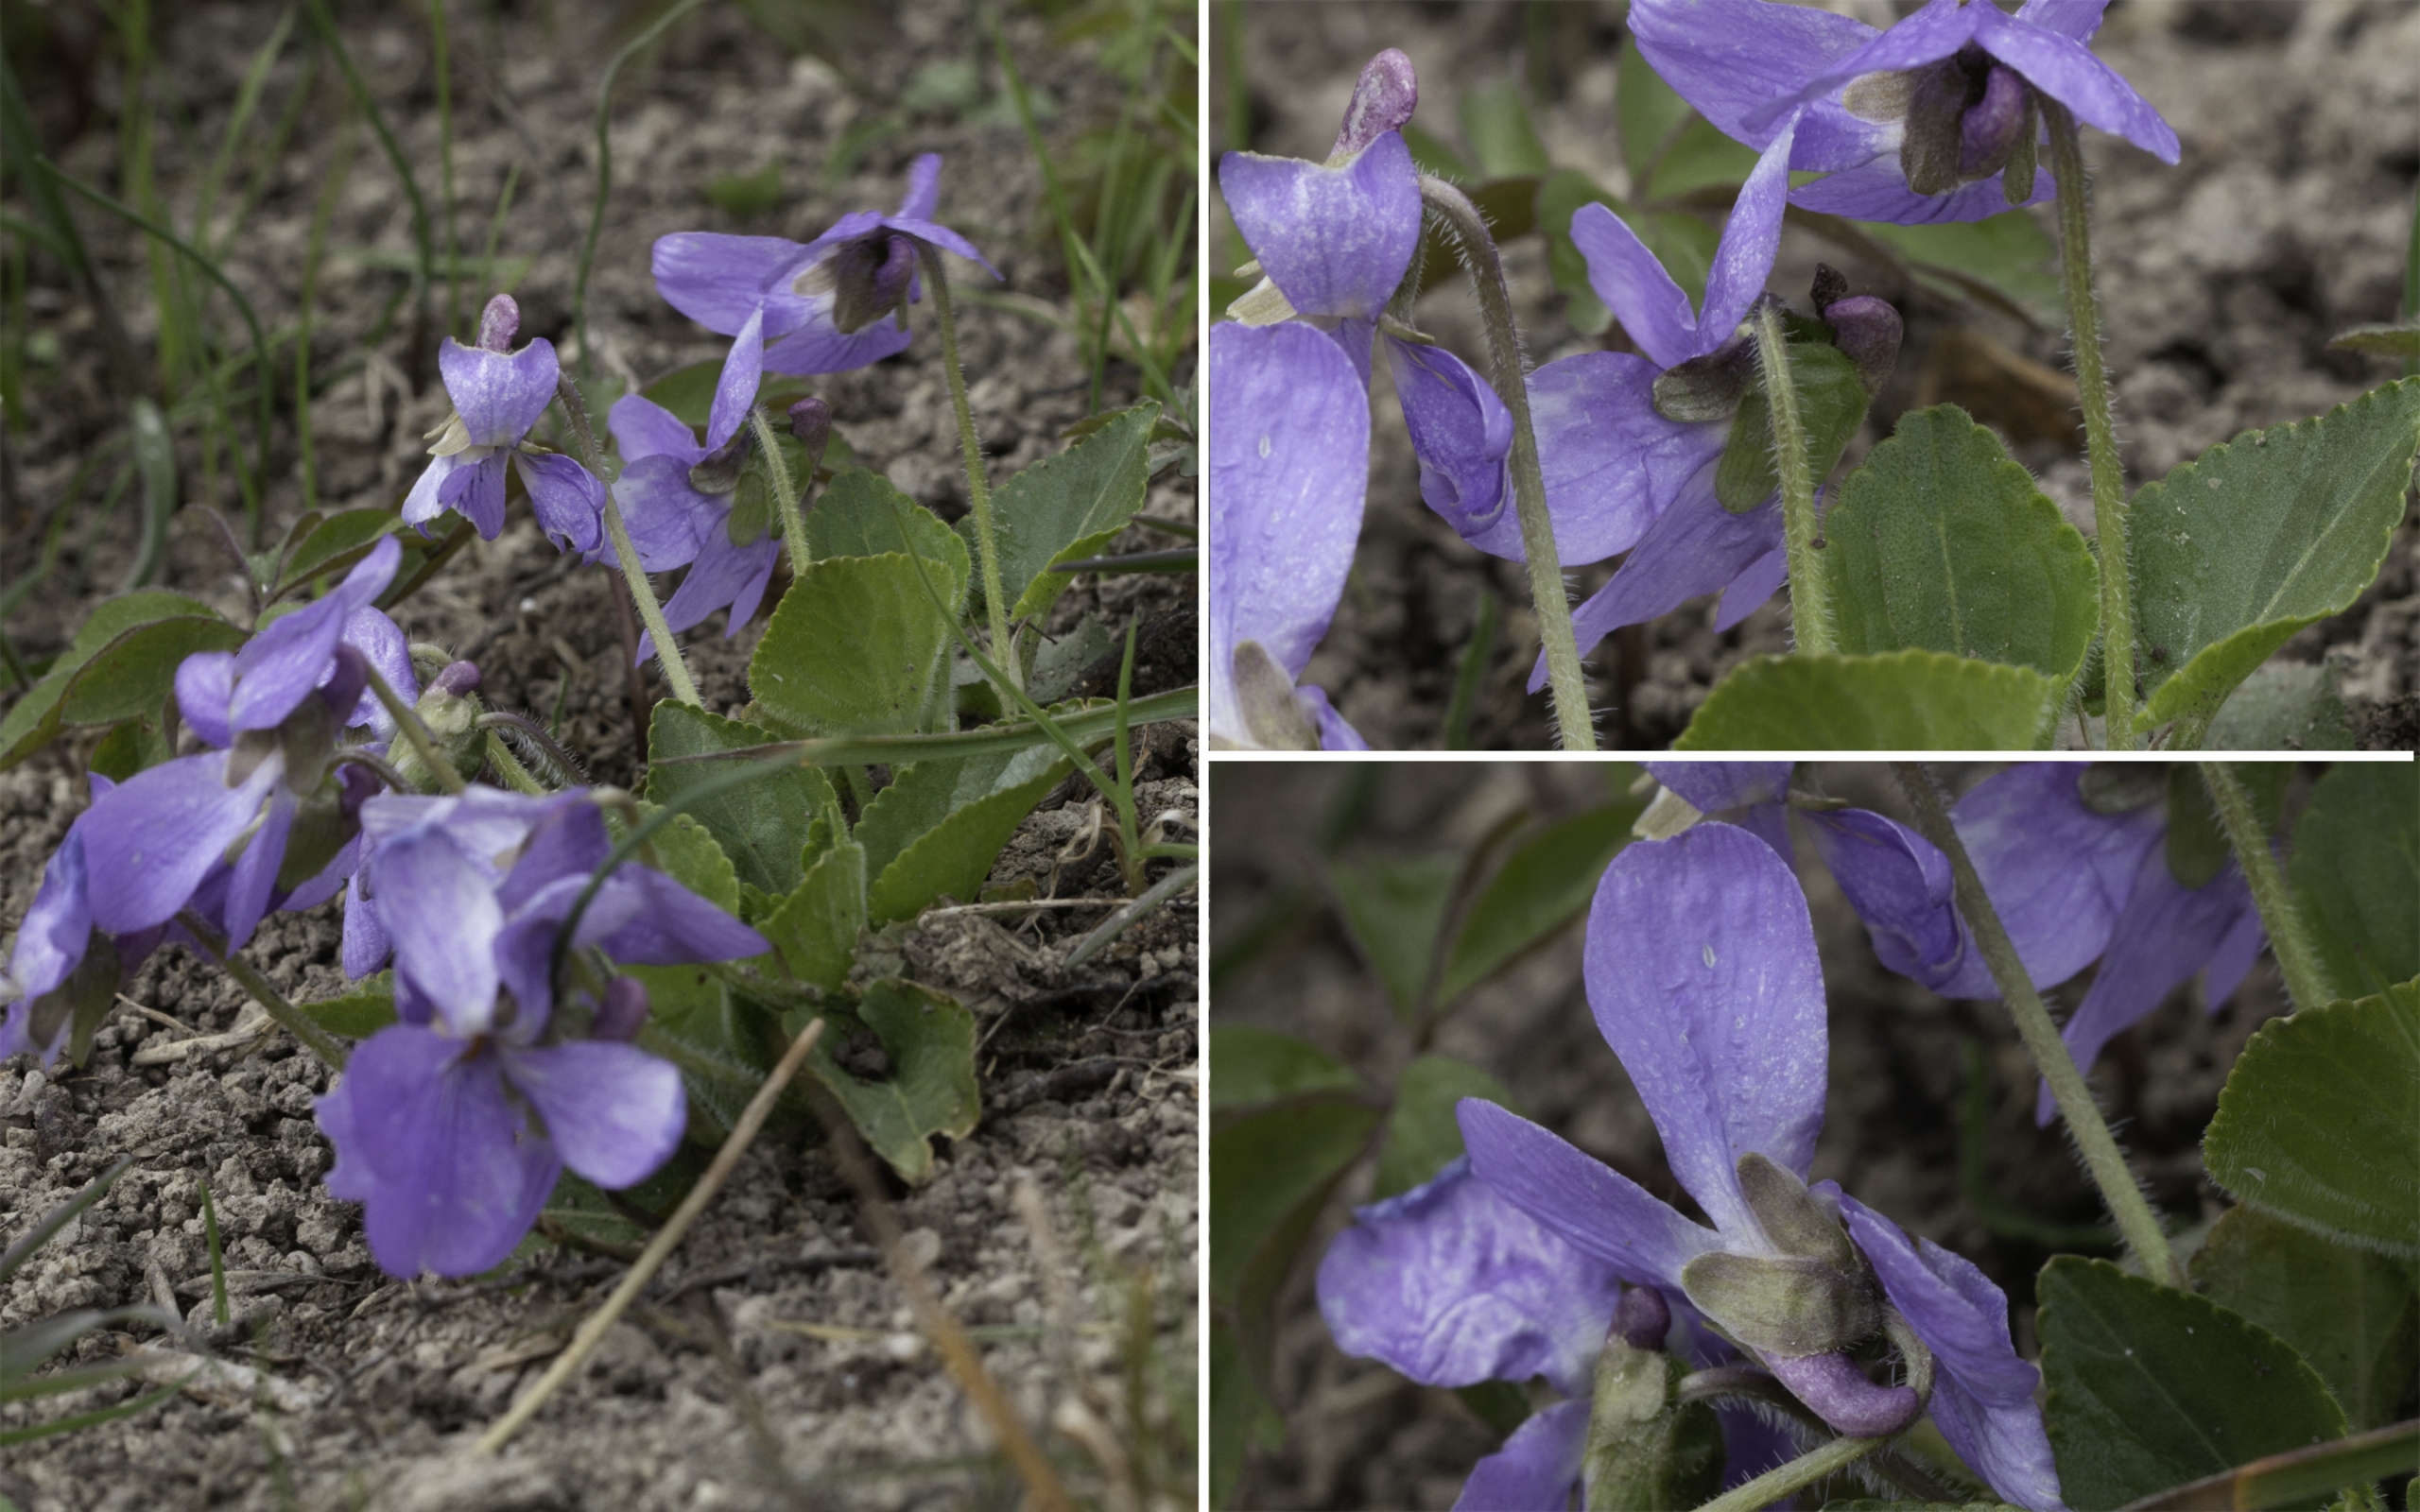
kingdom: Plantae
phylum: Tracheophyta
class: Magnoliopsida
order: Malpighiales
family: Violaceae
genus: Viola
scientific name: Viola hirta
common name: Håret viol
